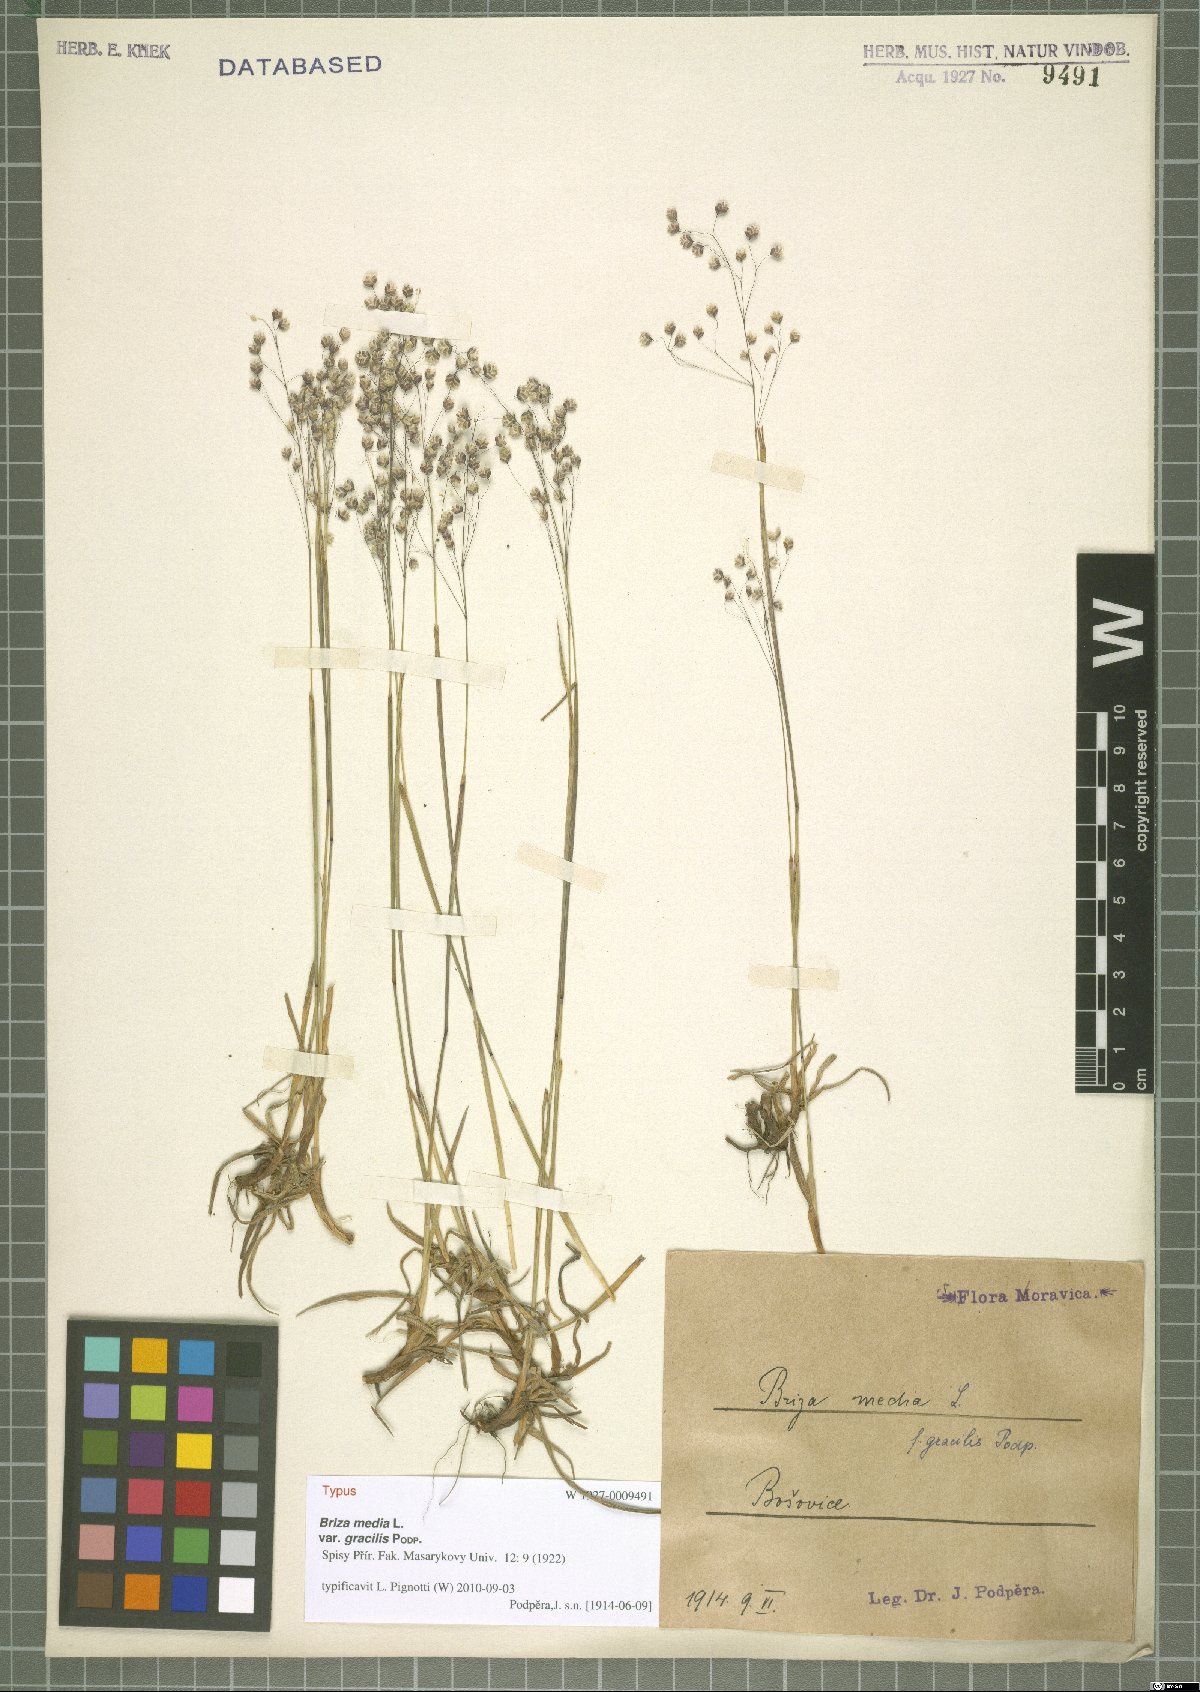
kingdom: Plantae
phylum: Tracheophyta
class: Liliopsida
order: Poales
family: Poaceae
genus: Briza
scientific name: Briza media
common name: Quaking grass
